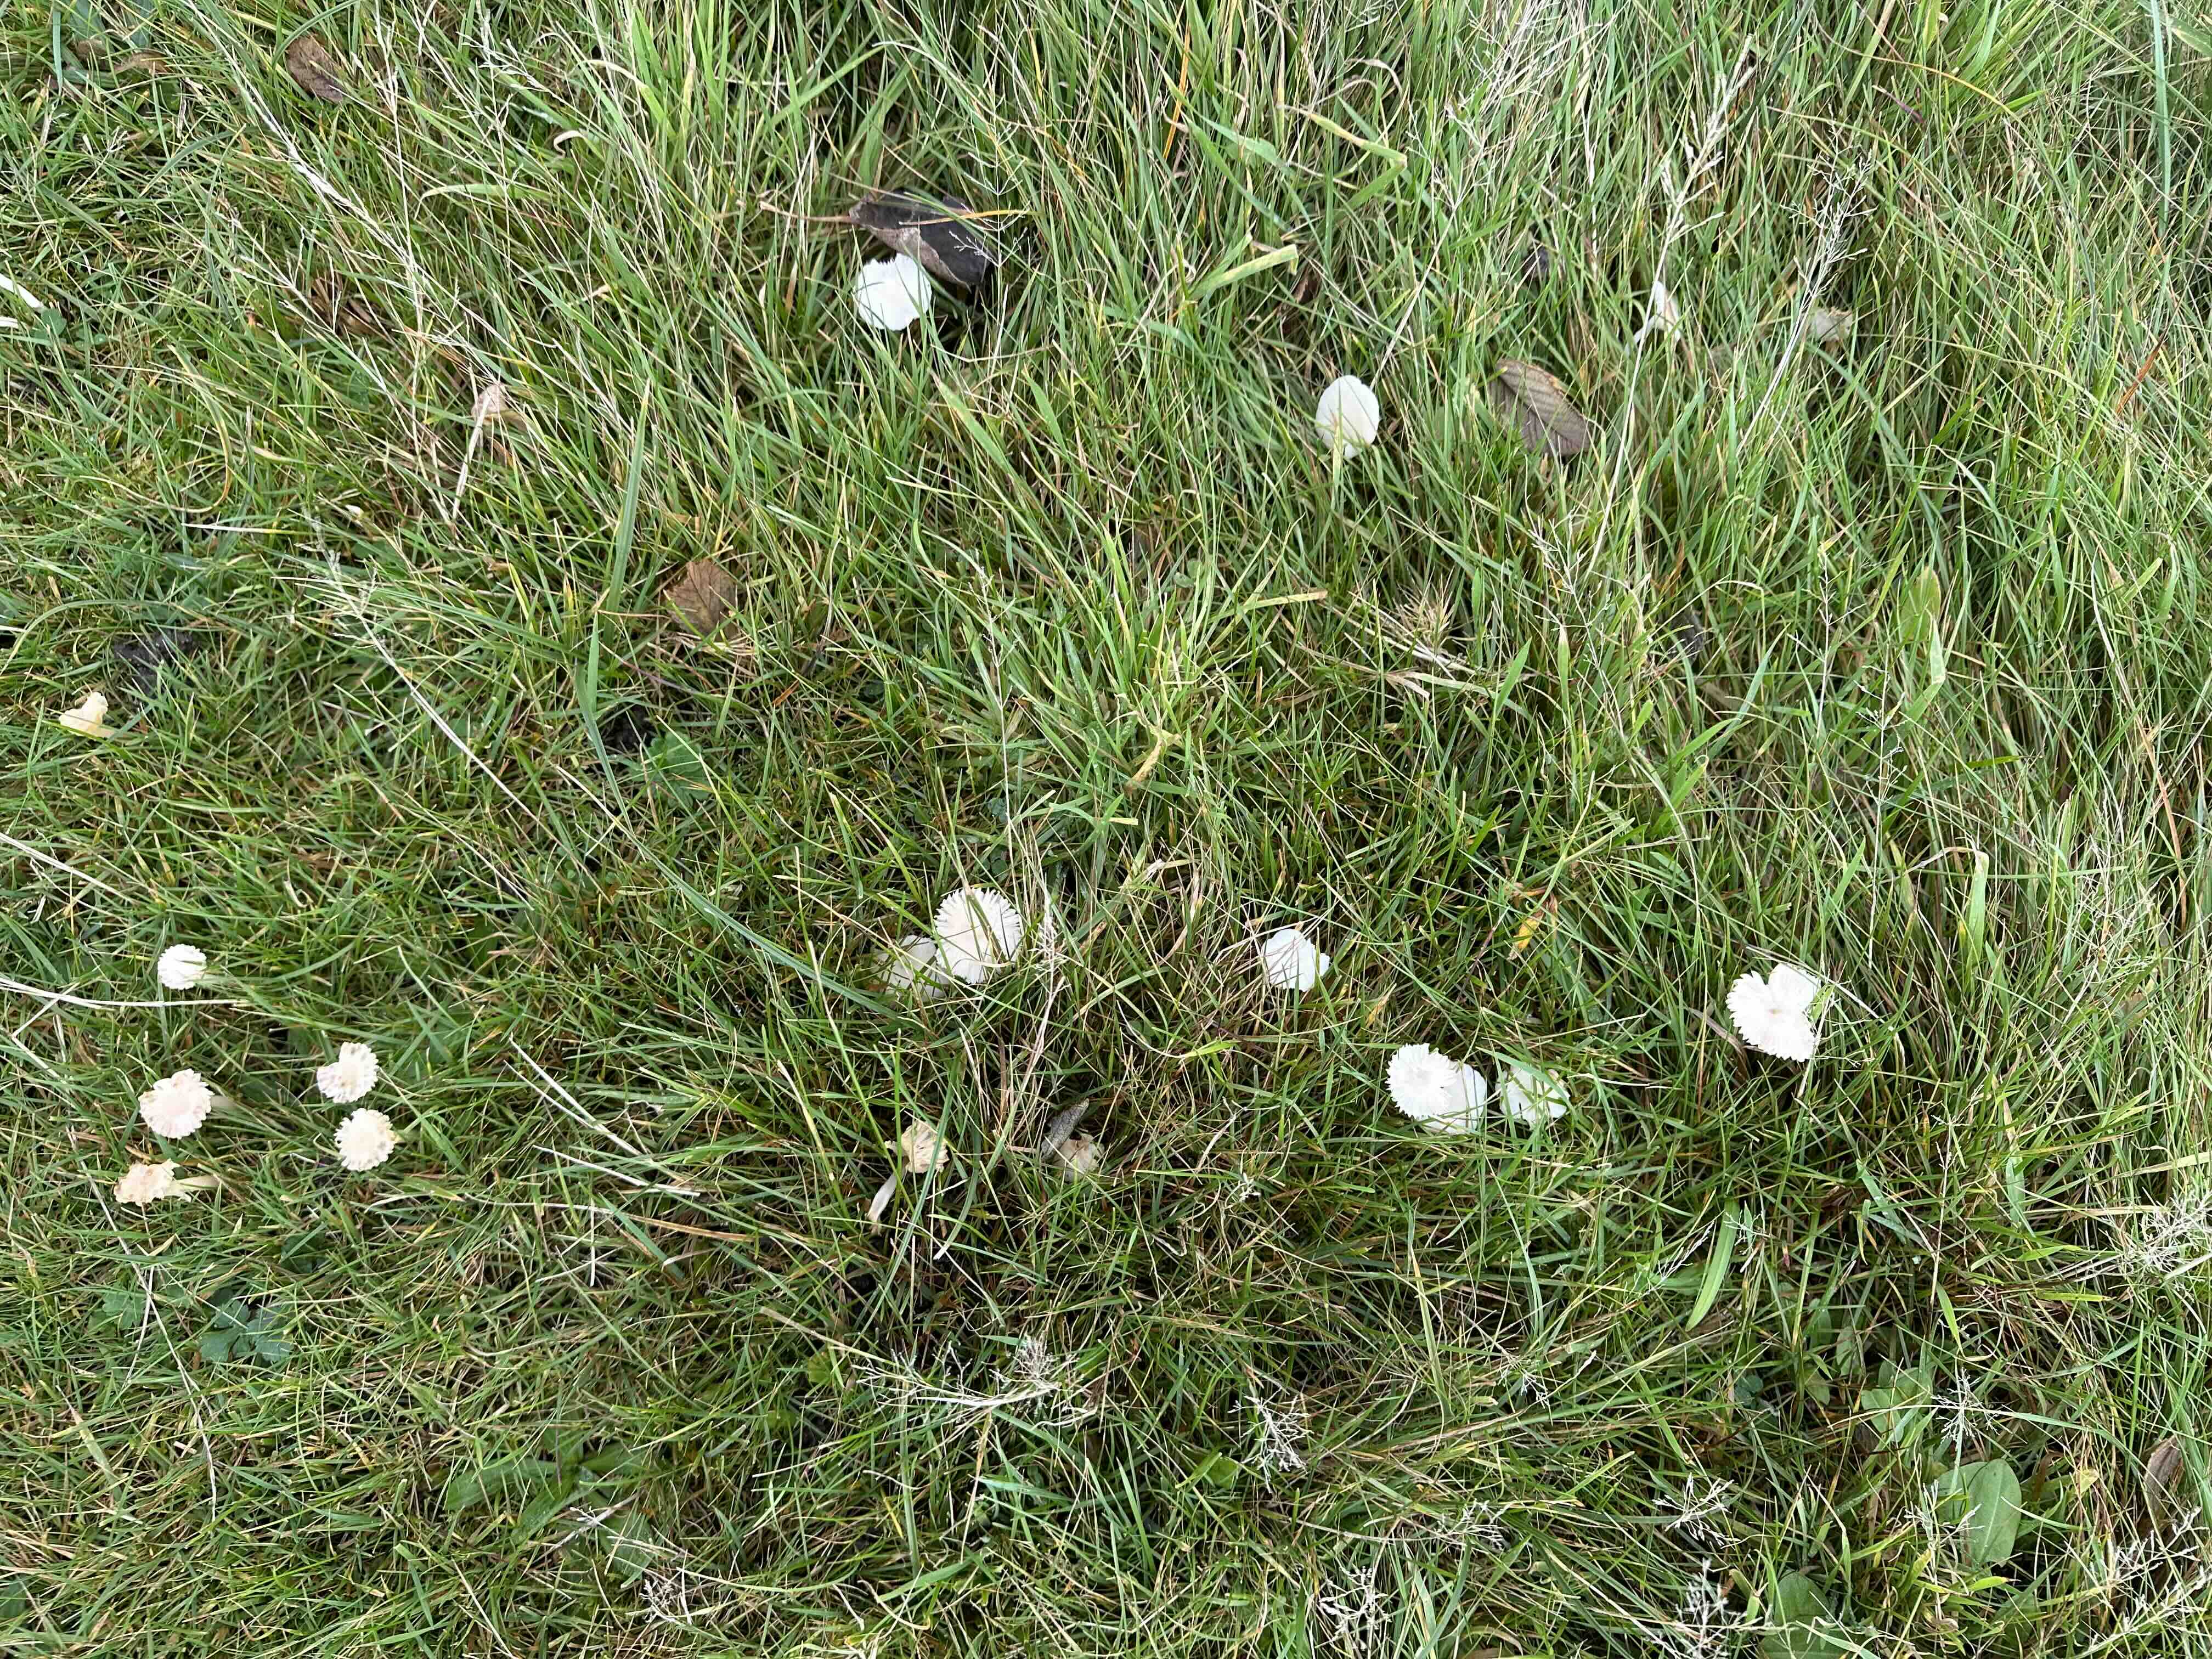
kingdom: Fungi
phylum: Basidiomycota
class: Agaricomycetes
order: Agaricales
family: Hygrophoraceae
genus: Cuphophyllus
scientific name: Cuphophyllus virgineus
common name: snehvid vokshat
